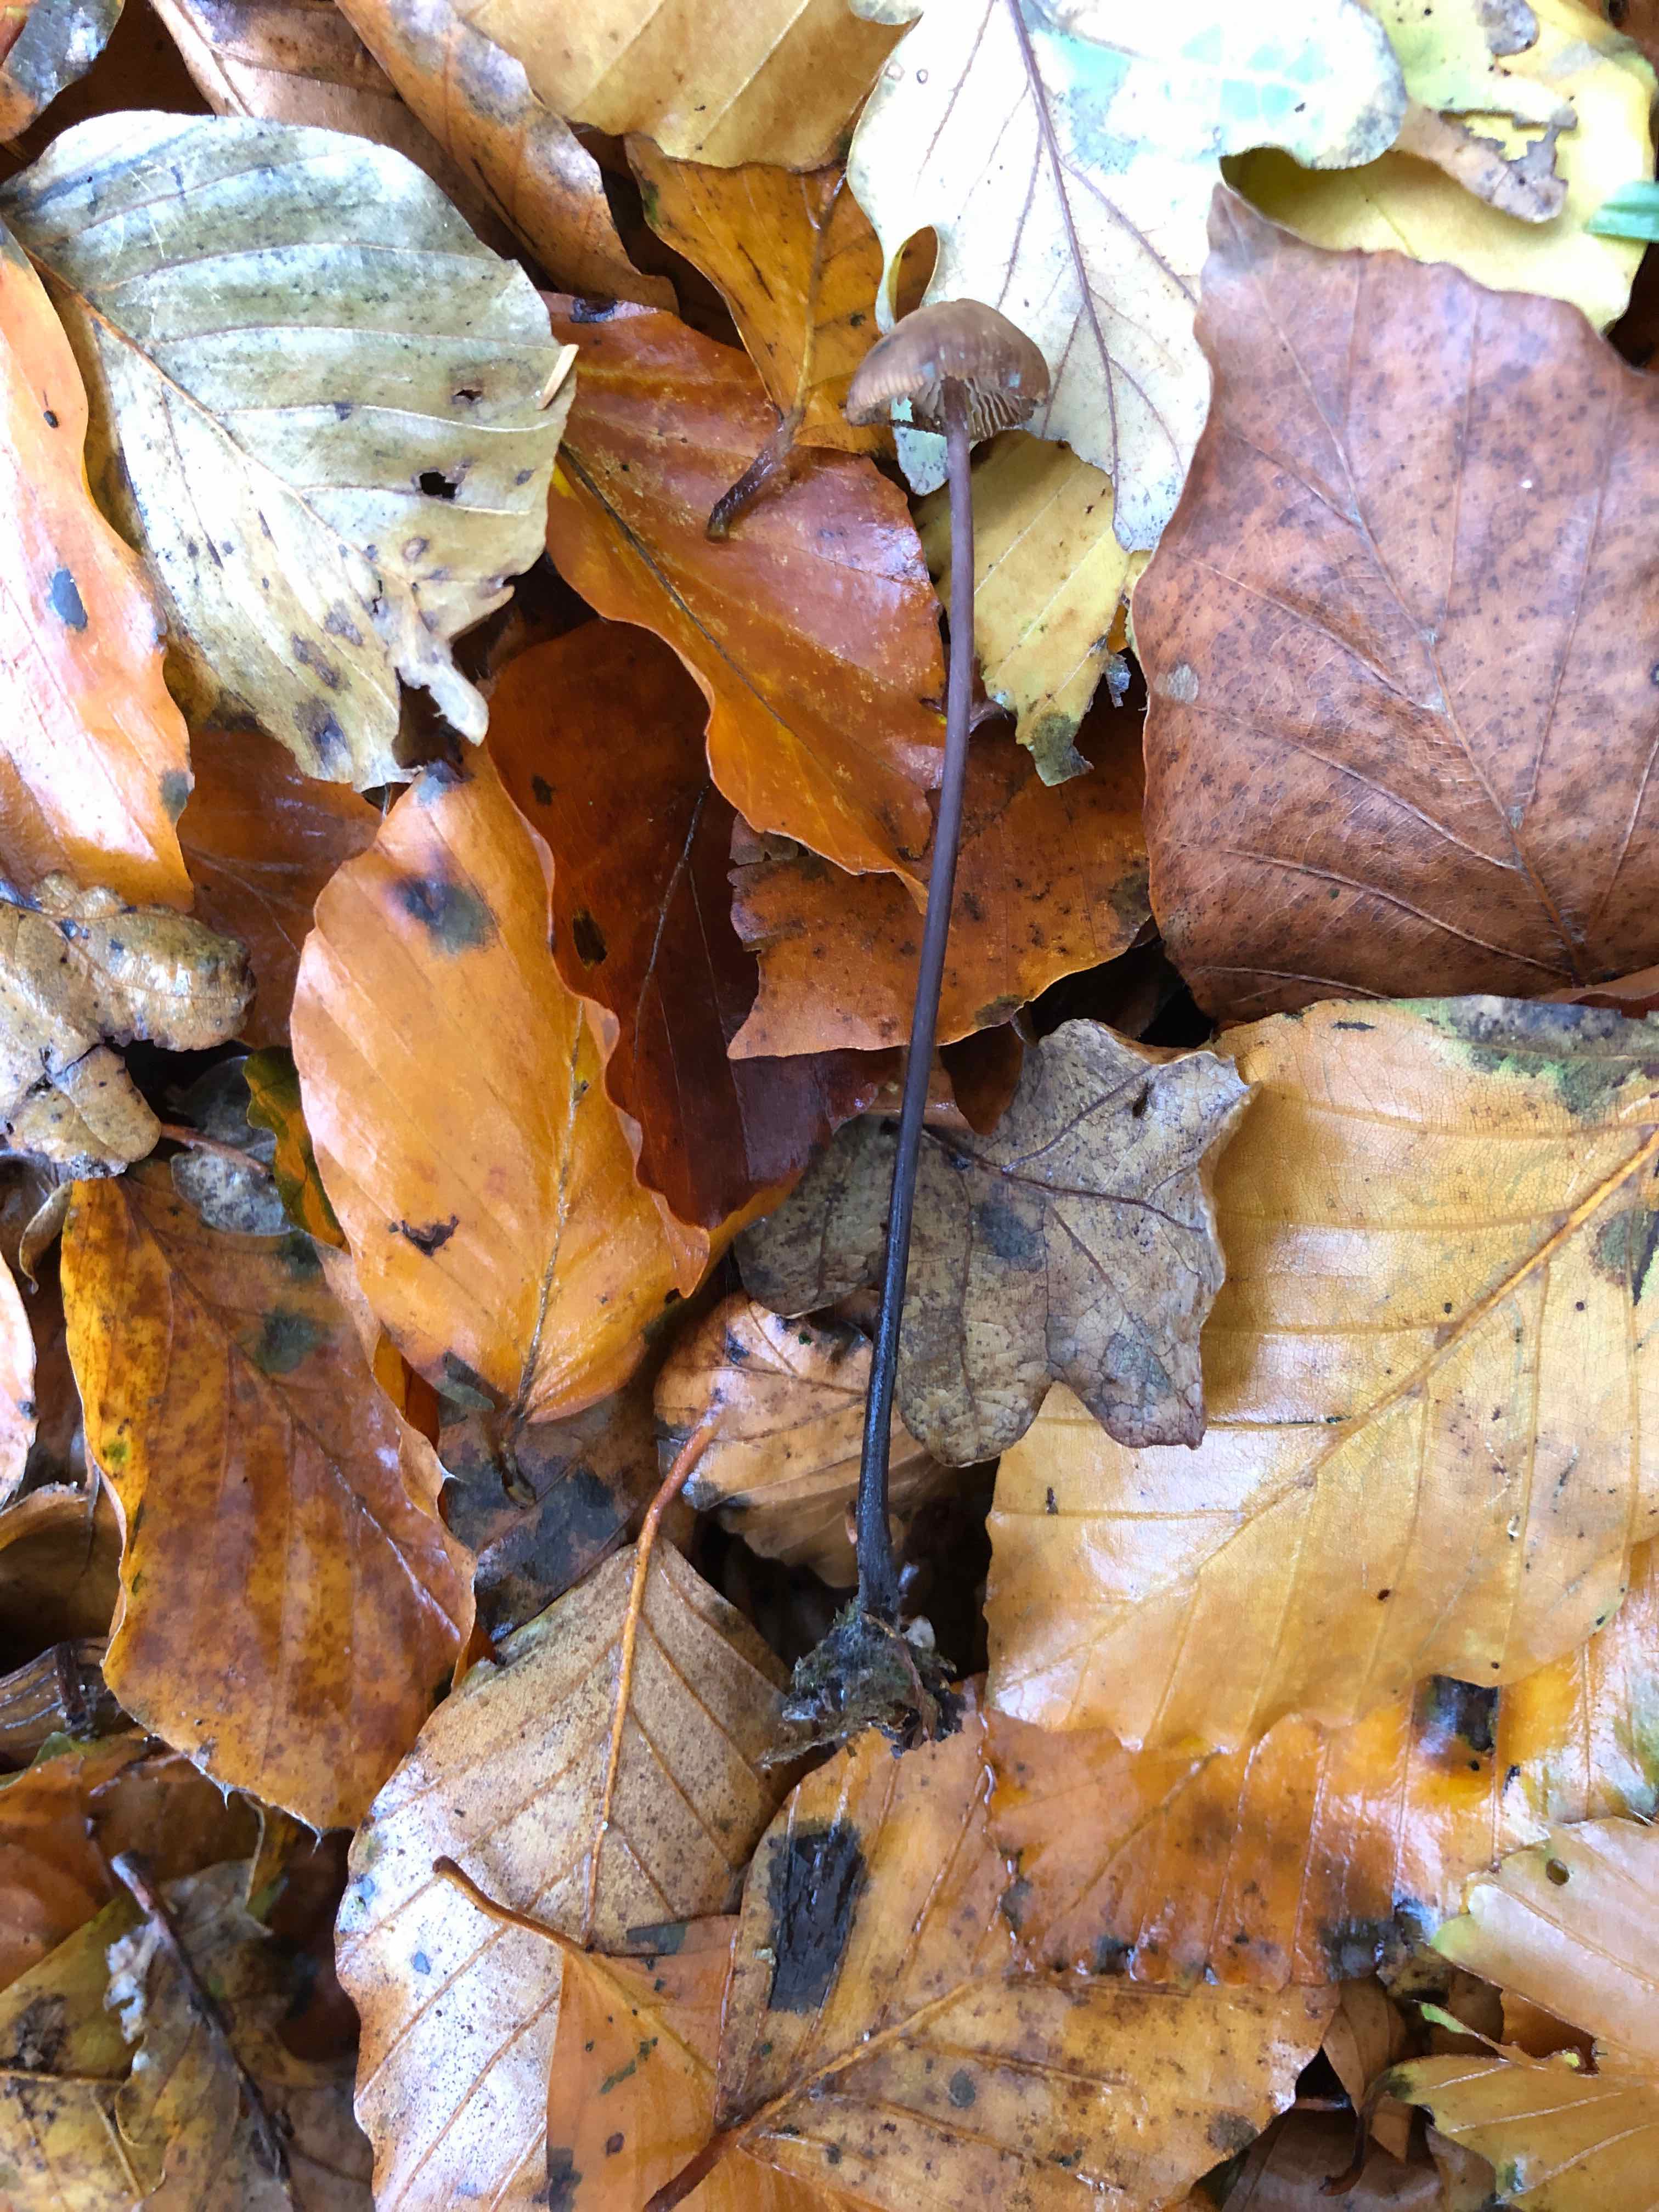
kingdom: Fungi
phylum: Basidiomycota
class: Agaricomycetes
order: Agaricales
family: Omphalotaceae
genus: Mycetinis
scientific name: Mycetinis alliaceus
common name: stor løghat
